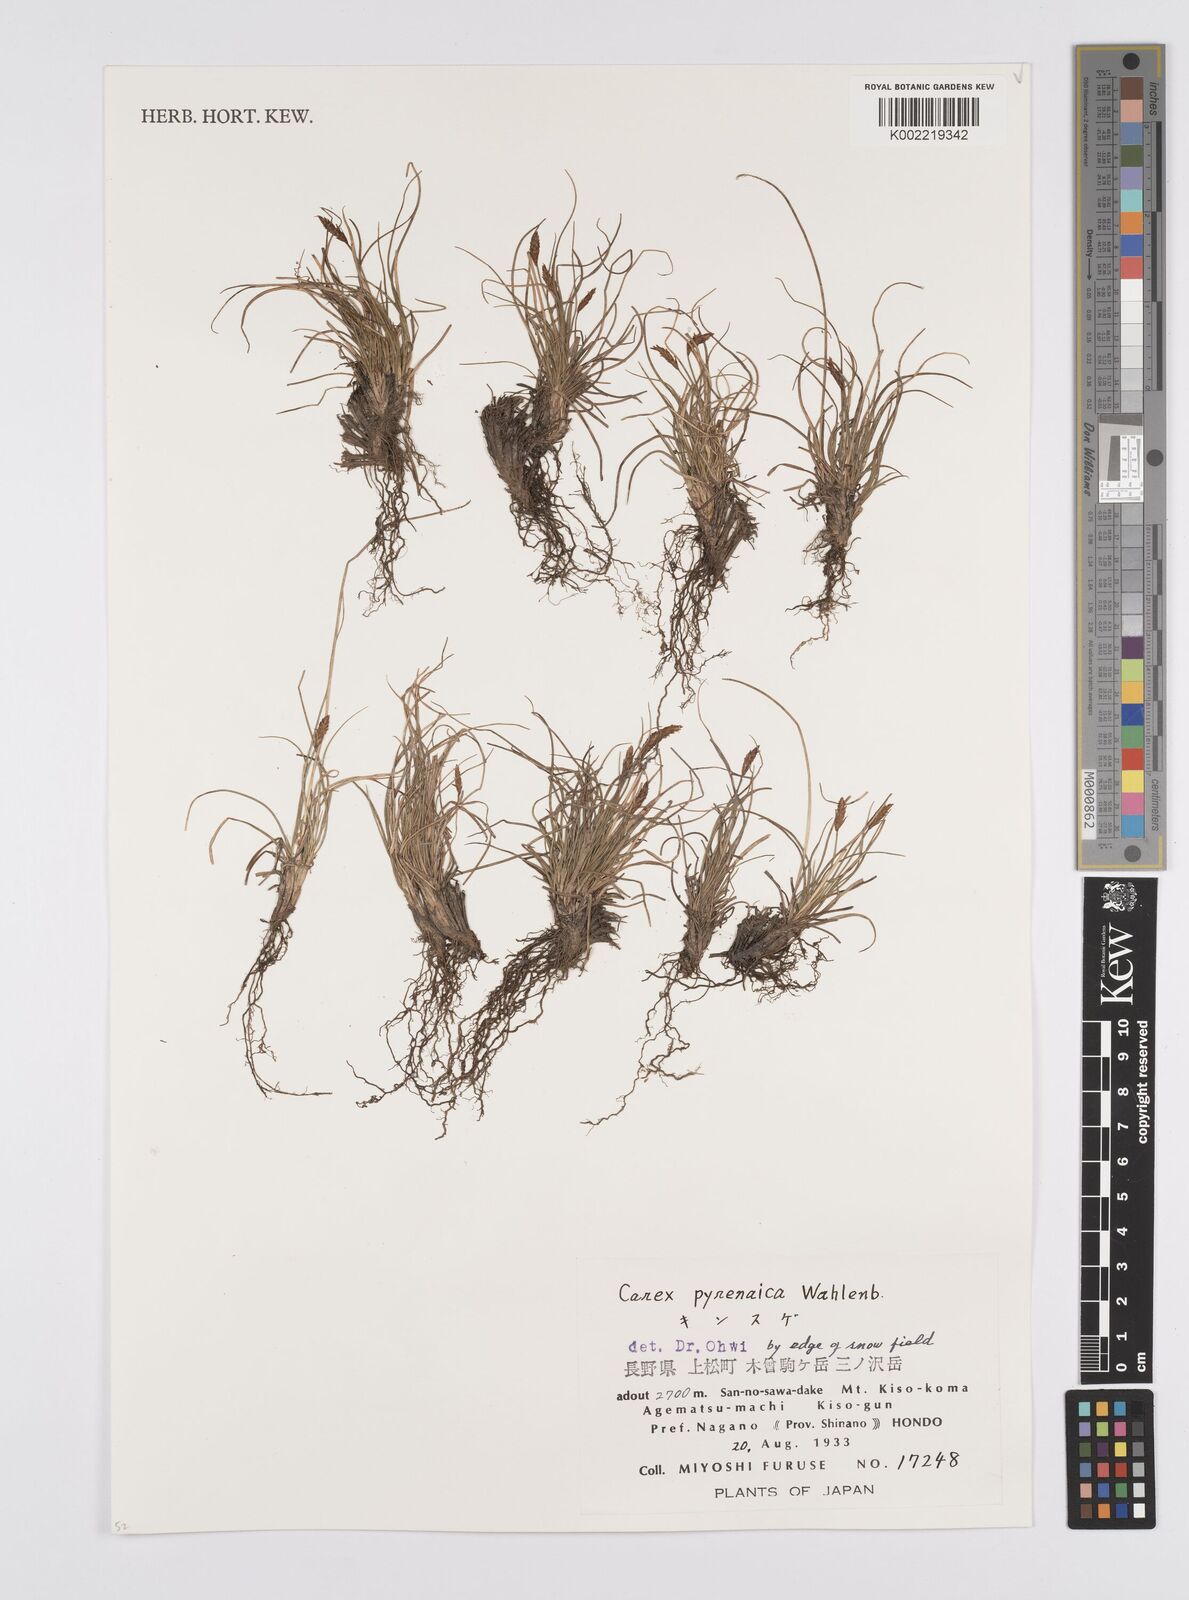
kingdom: Plantae
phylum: Tracheophyta
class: Liliopsida
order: Poales
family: Cyperaceae
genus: Carex
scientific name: Carex pyrenaica
